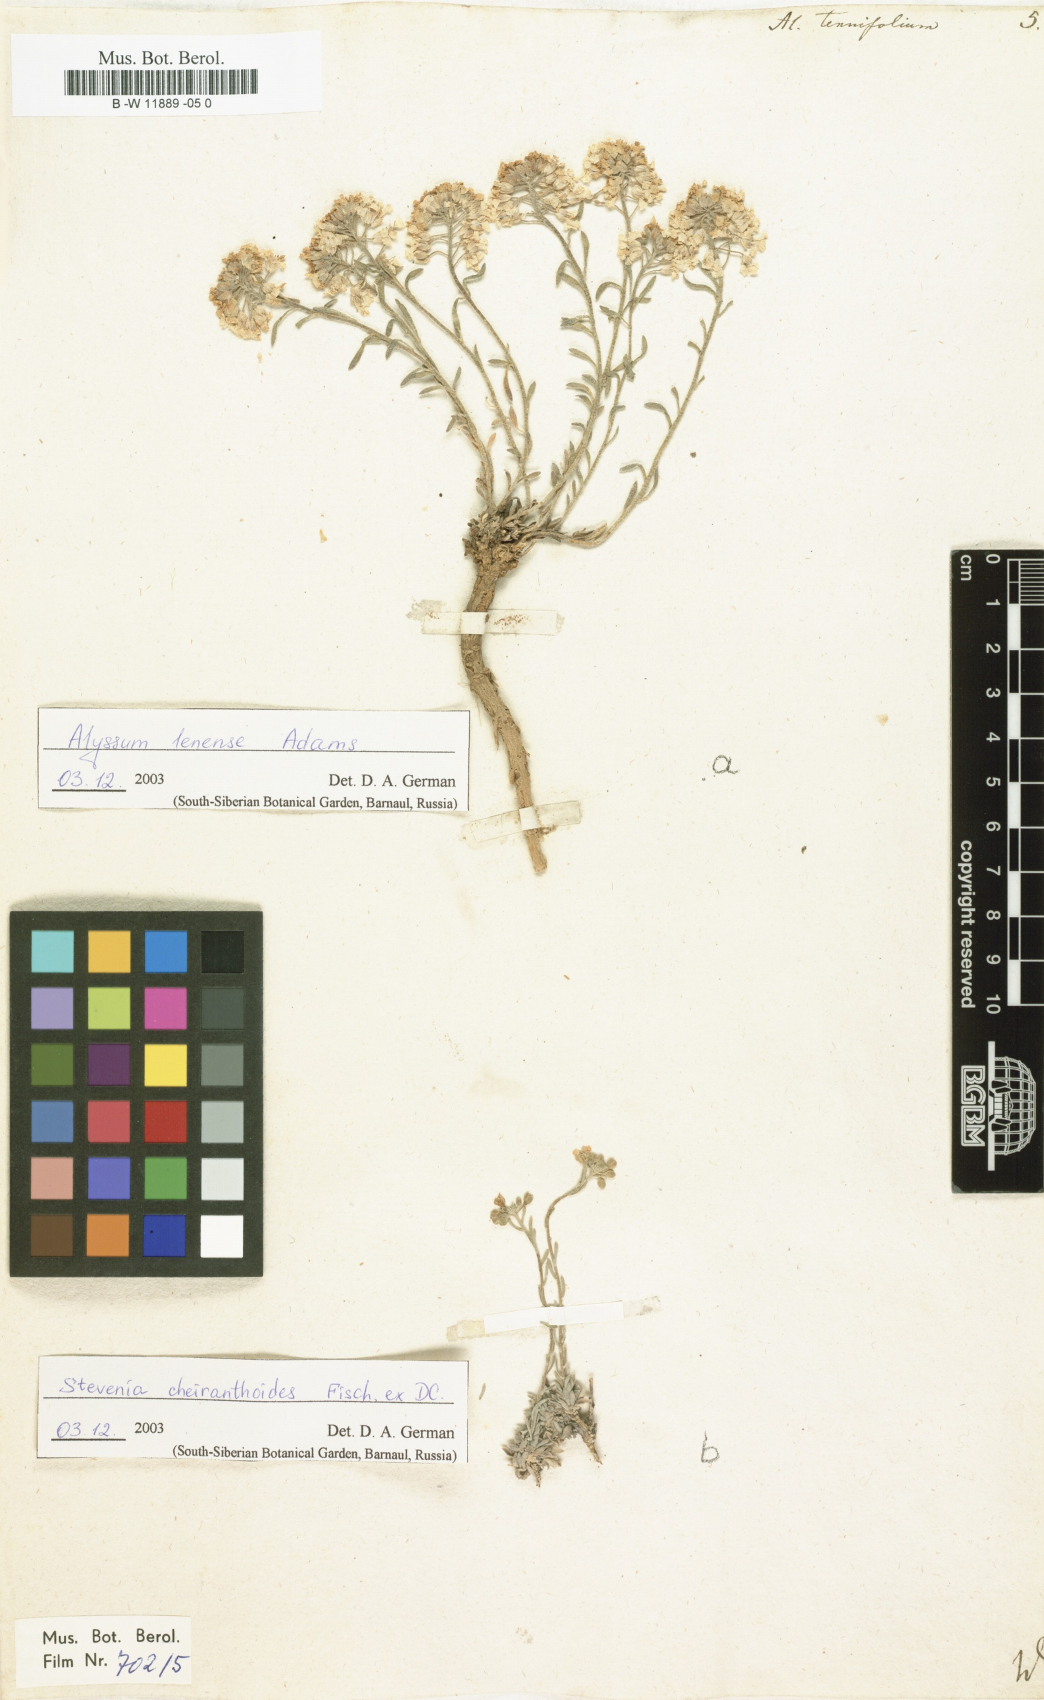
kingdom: Plantae
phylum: Tracheophyta
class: Magnoliopsida
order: Brassicales
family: Brassicaceae
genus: Stevenia
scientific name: Stevenia tenuifolia
